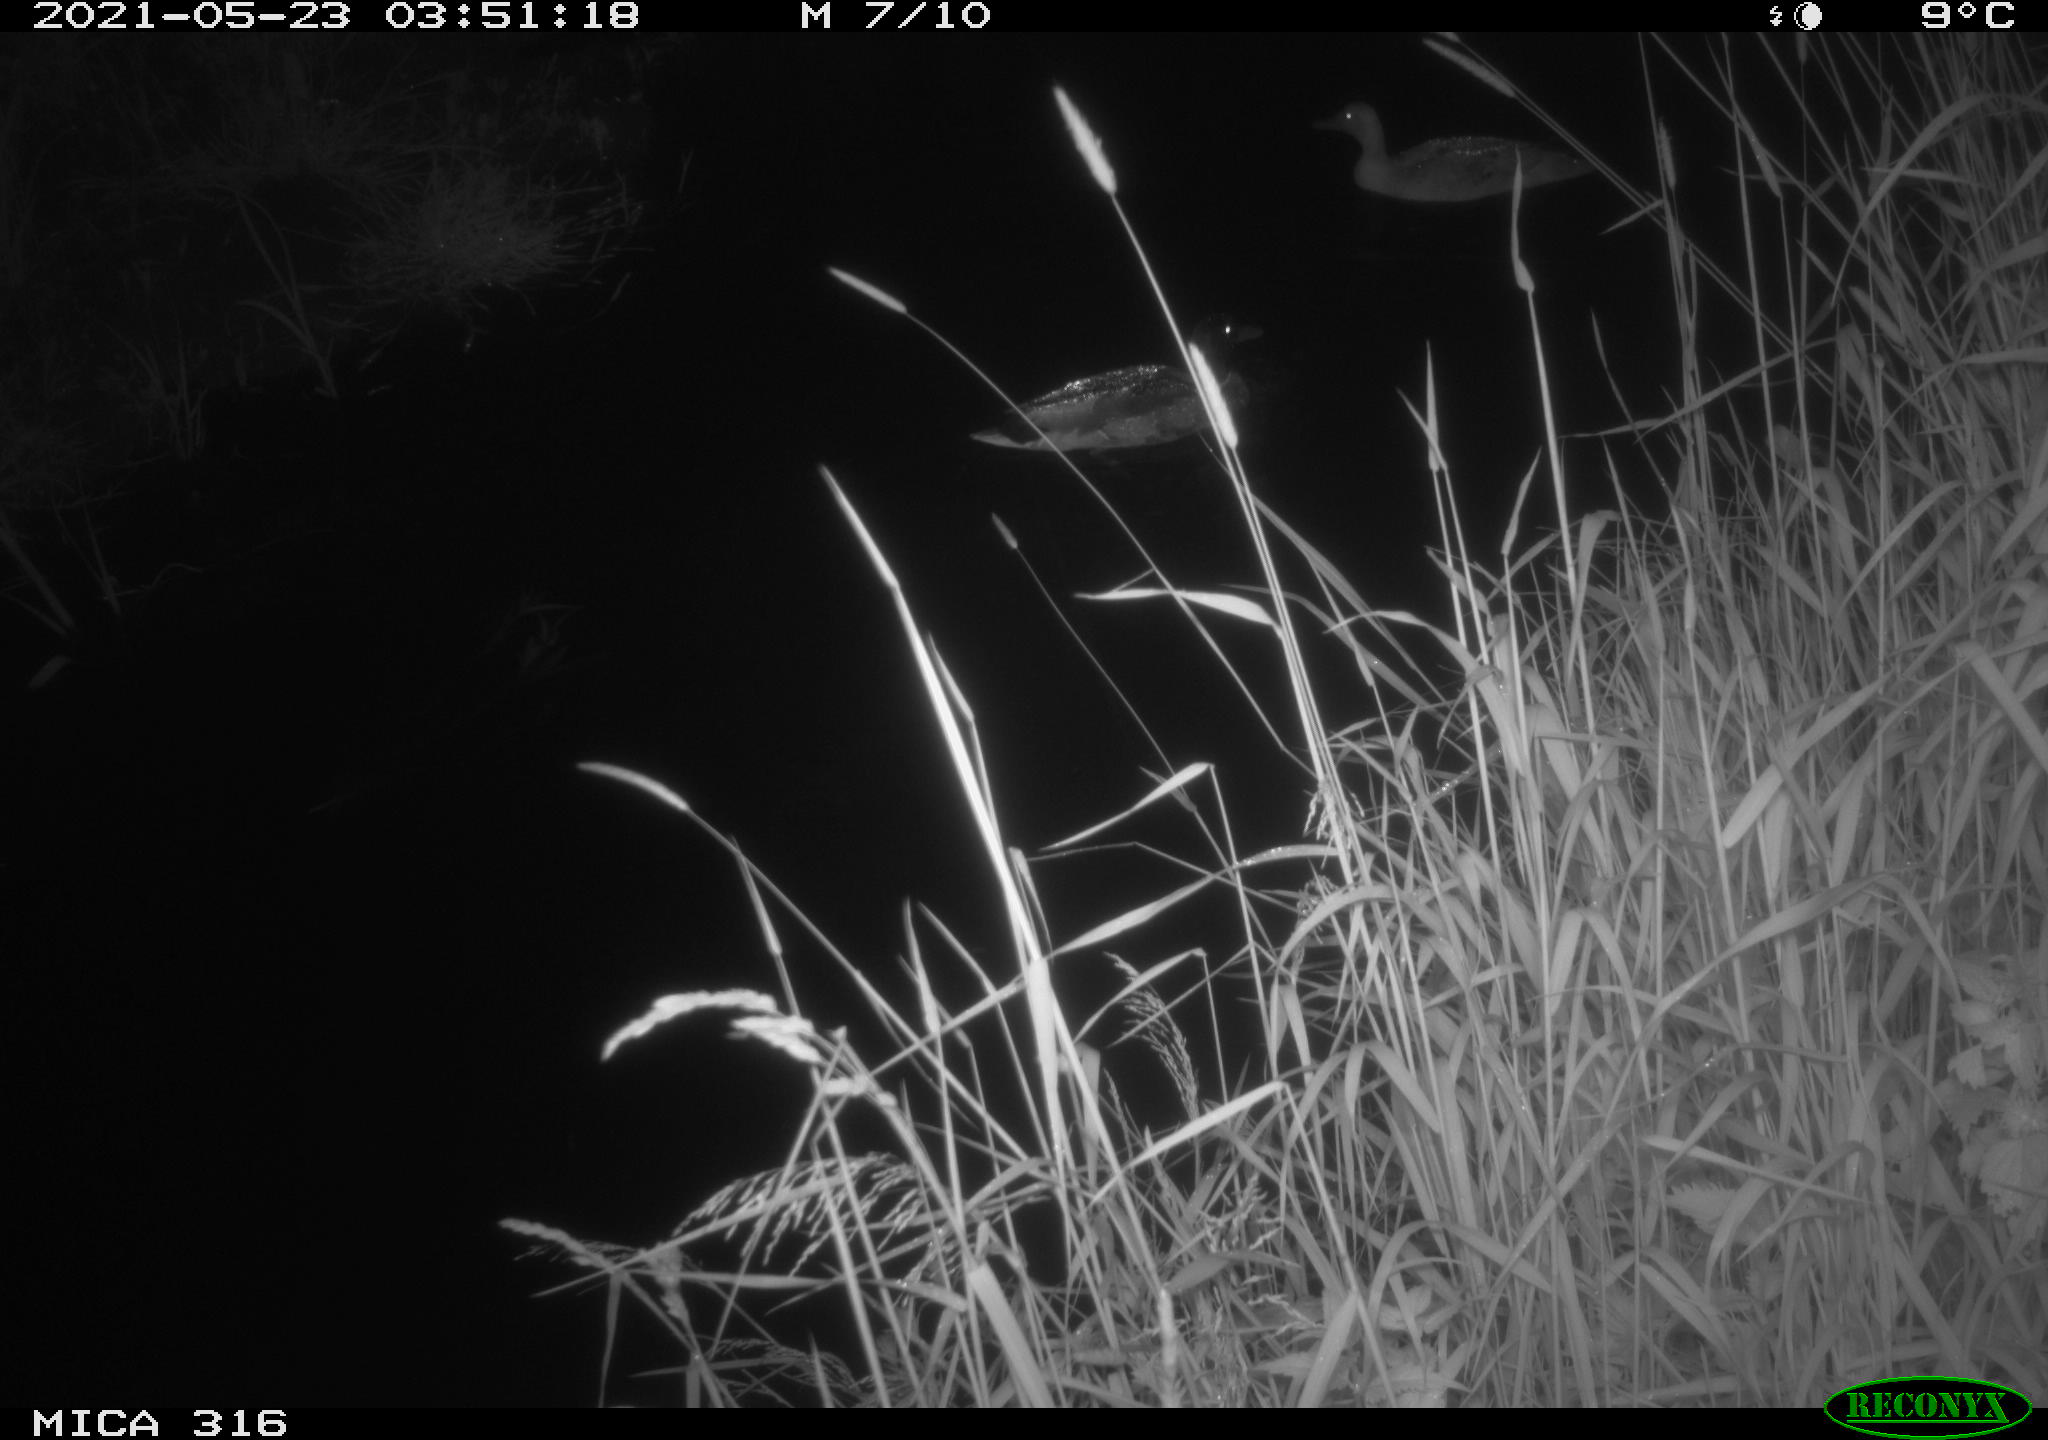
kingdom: Animalia
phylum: Chordata
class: Aves
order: Anseriformes
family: Anatidae
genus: Anas
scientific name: Anas platyrhynchos
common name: Mallard
